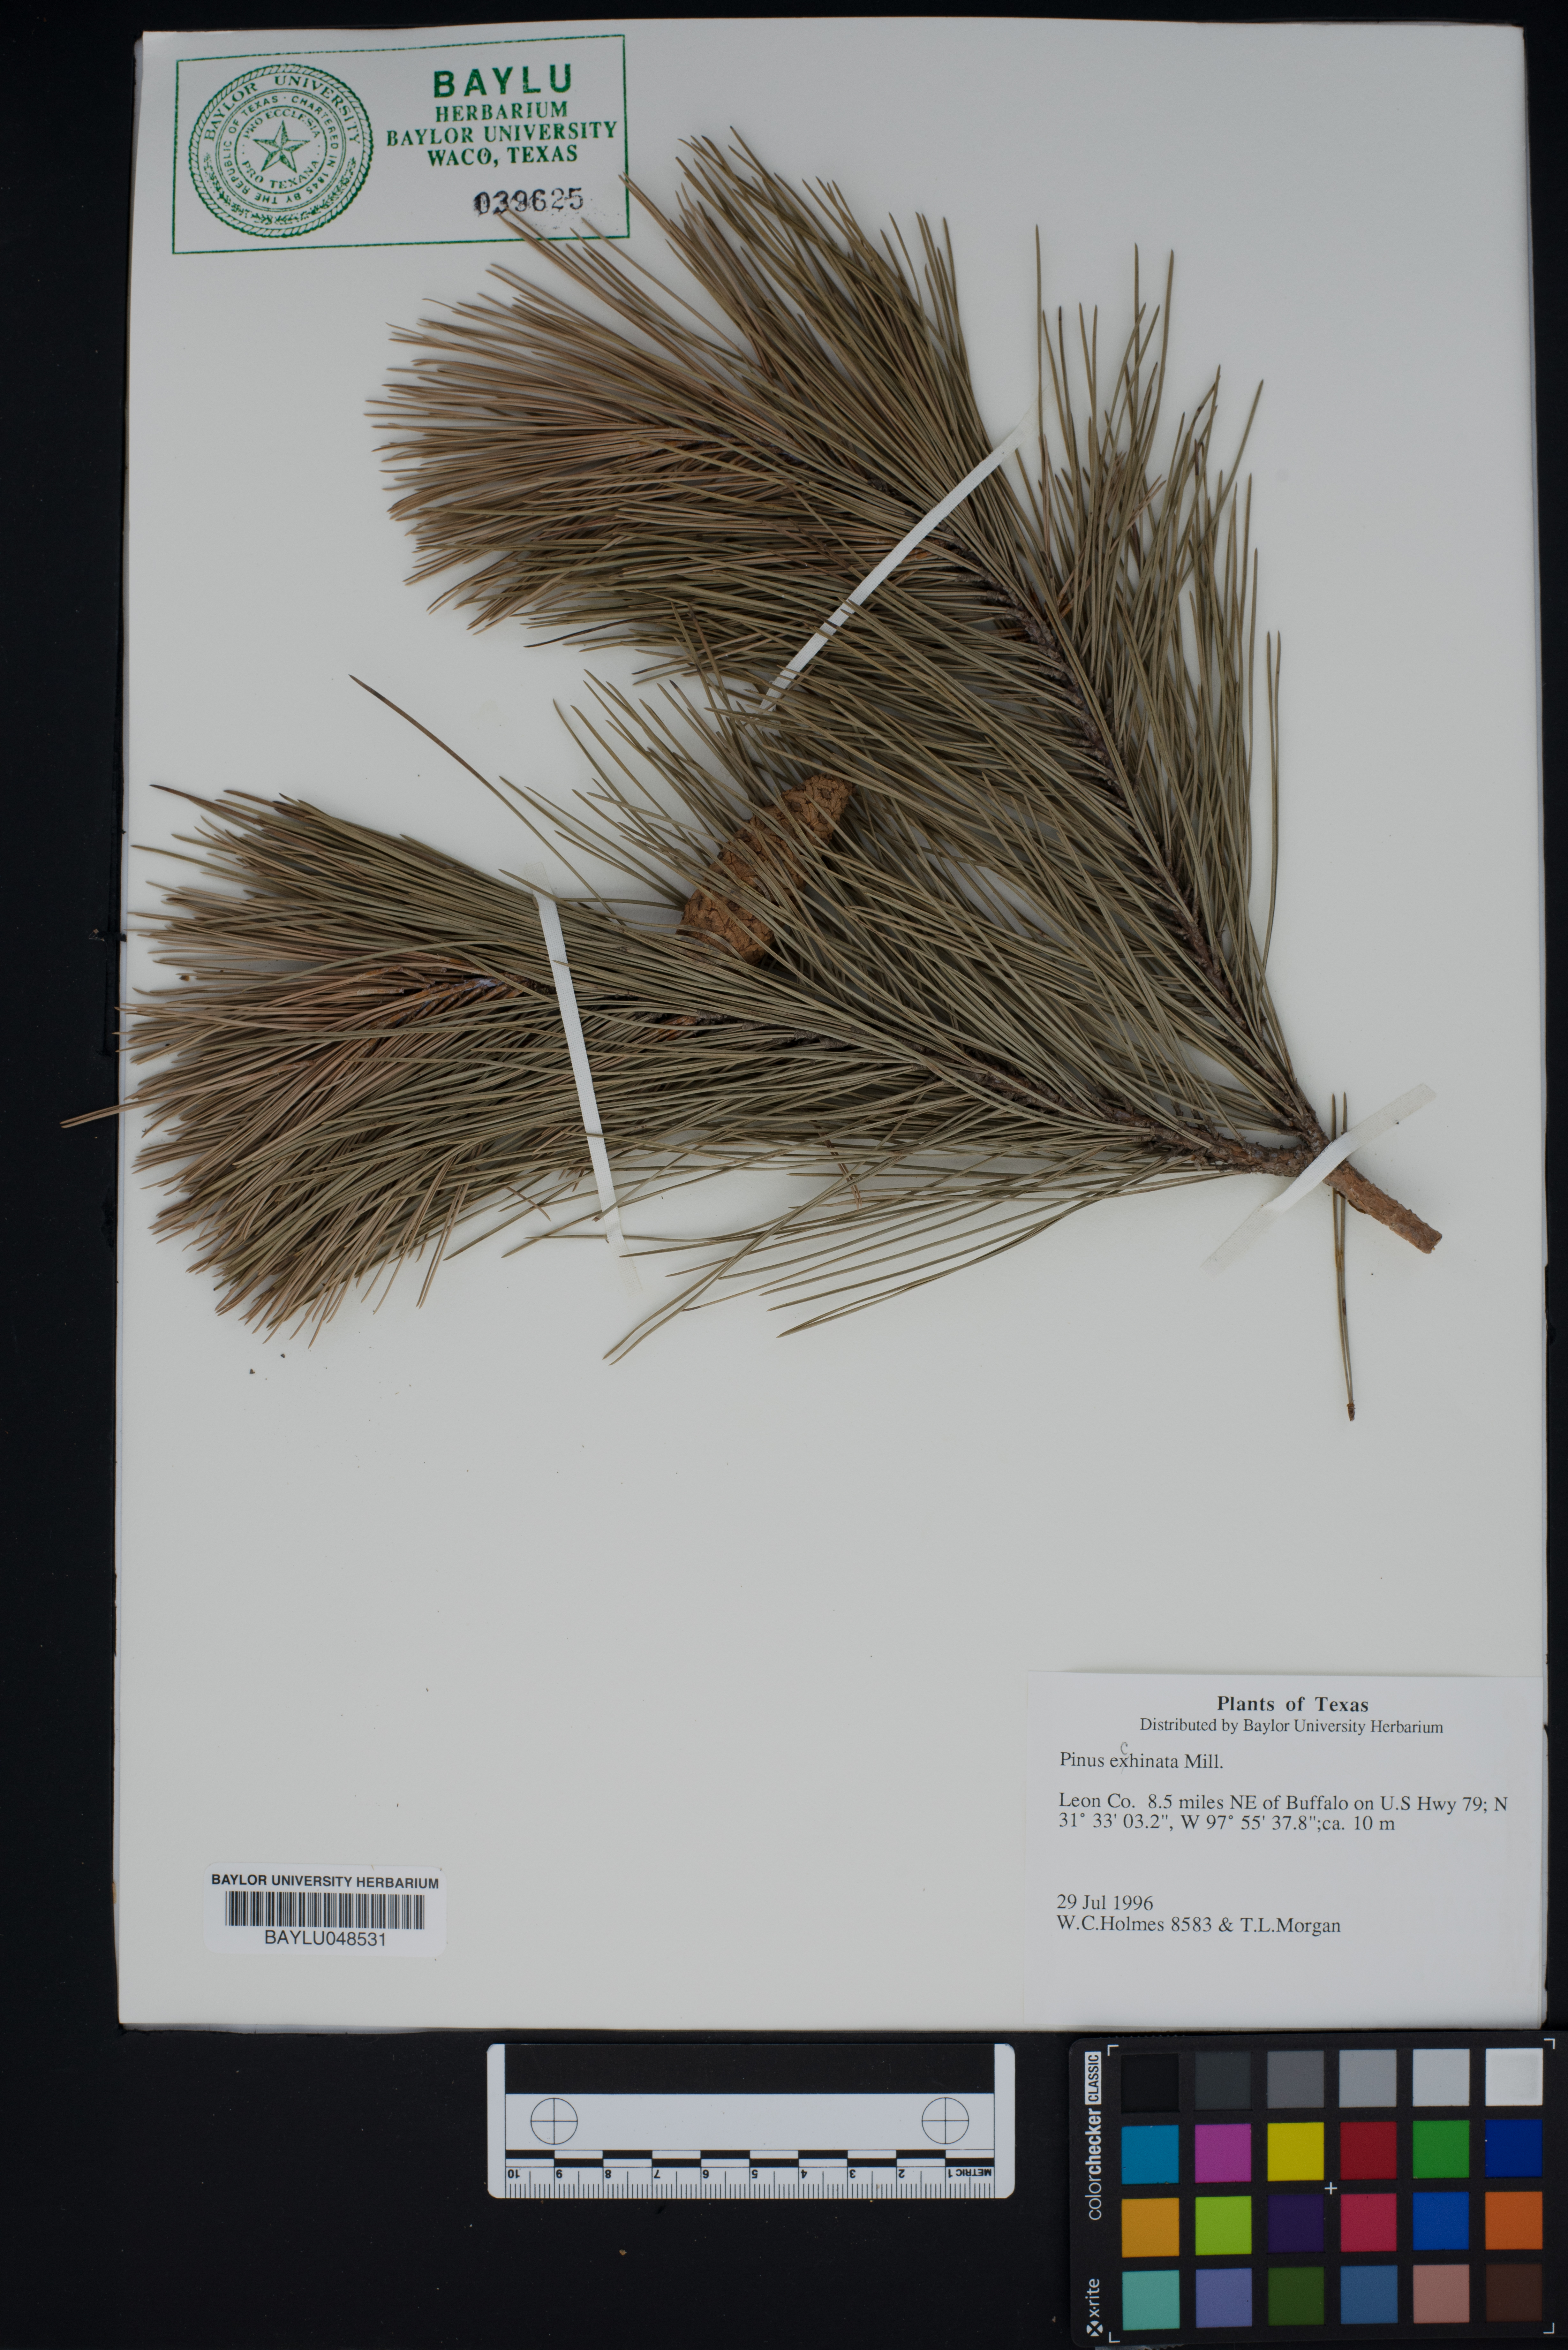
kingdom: Plantae
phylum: Tracheophyta
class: Pinopsida
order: Pinales
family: Pinaceae
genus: Pinus
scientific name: Pinus echinata
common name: Shortleaf pine
